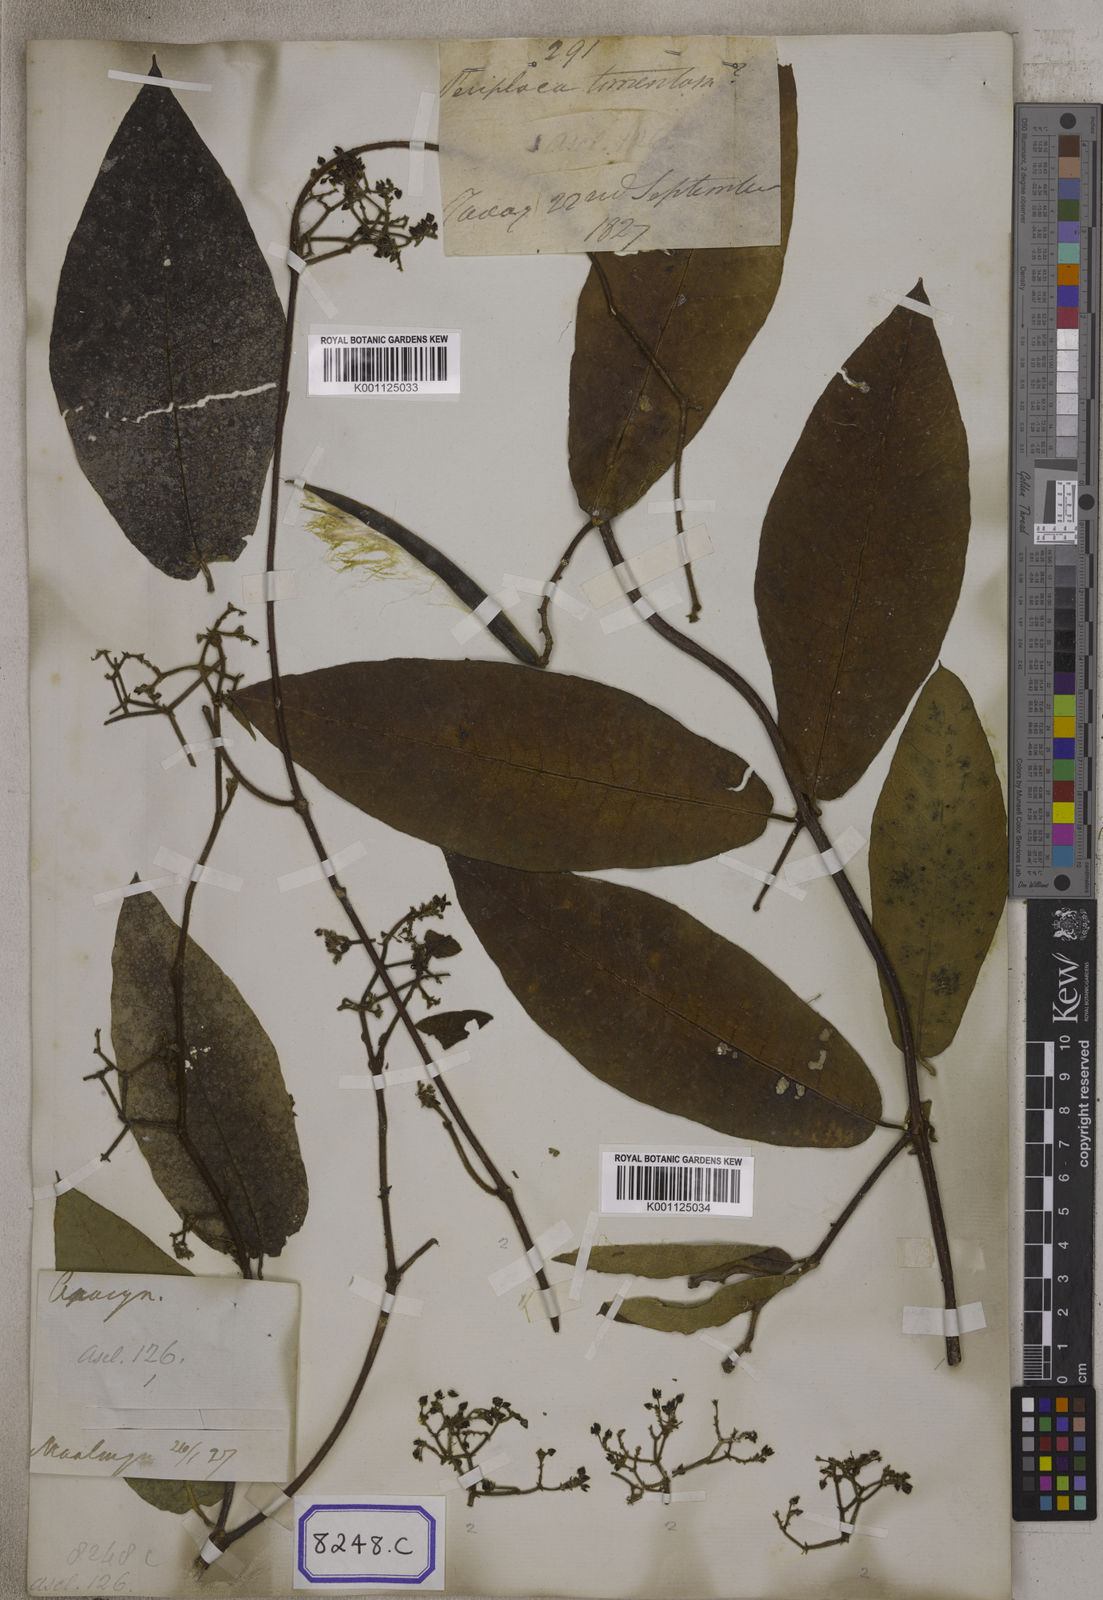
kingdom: Plantae
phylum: Tracheophyta
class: Magnoliopsida
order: Gentianales
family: Apocynaceae
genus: Streptocaulon
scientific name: Streptocaulon juventas
